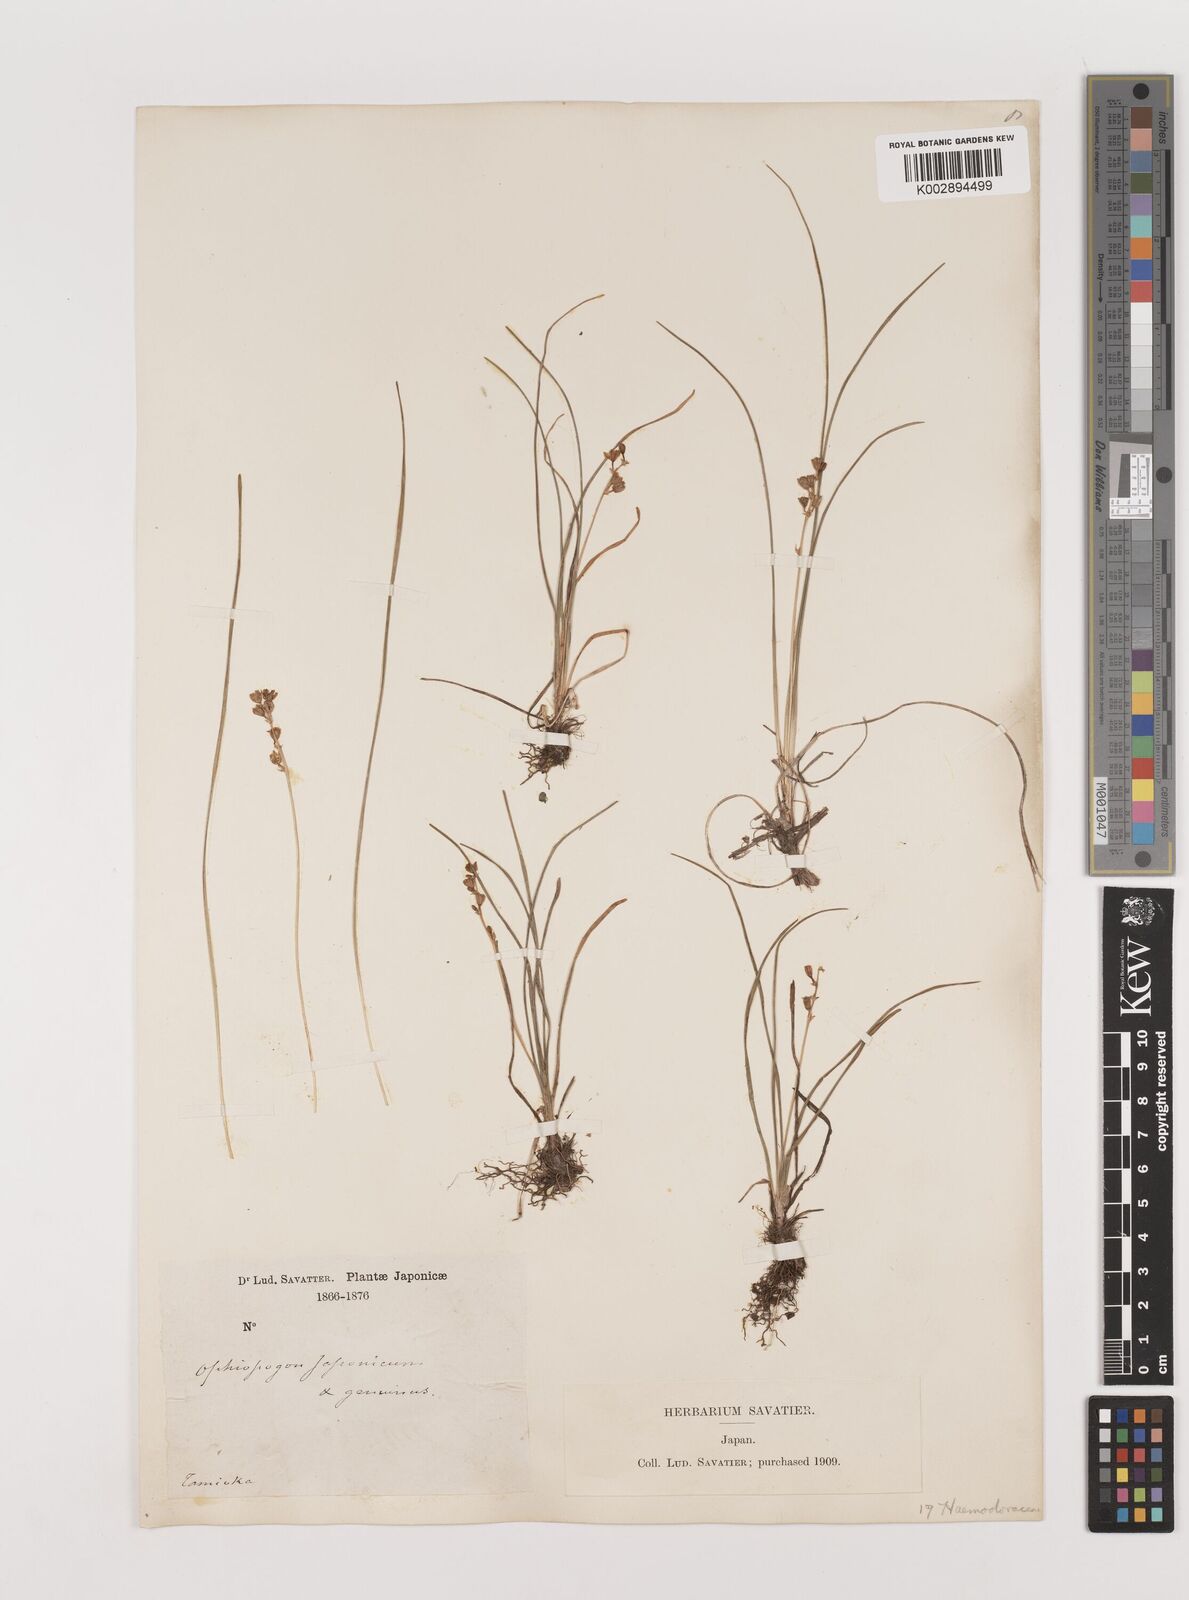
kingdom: Plantae
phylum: Tracheophyta
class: Liliopsida
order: Asparagales
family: Asparagaceae
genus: Liriope
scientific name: Liriope minor
